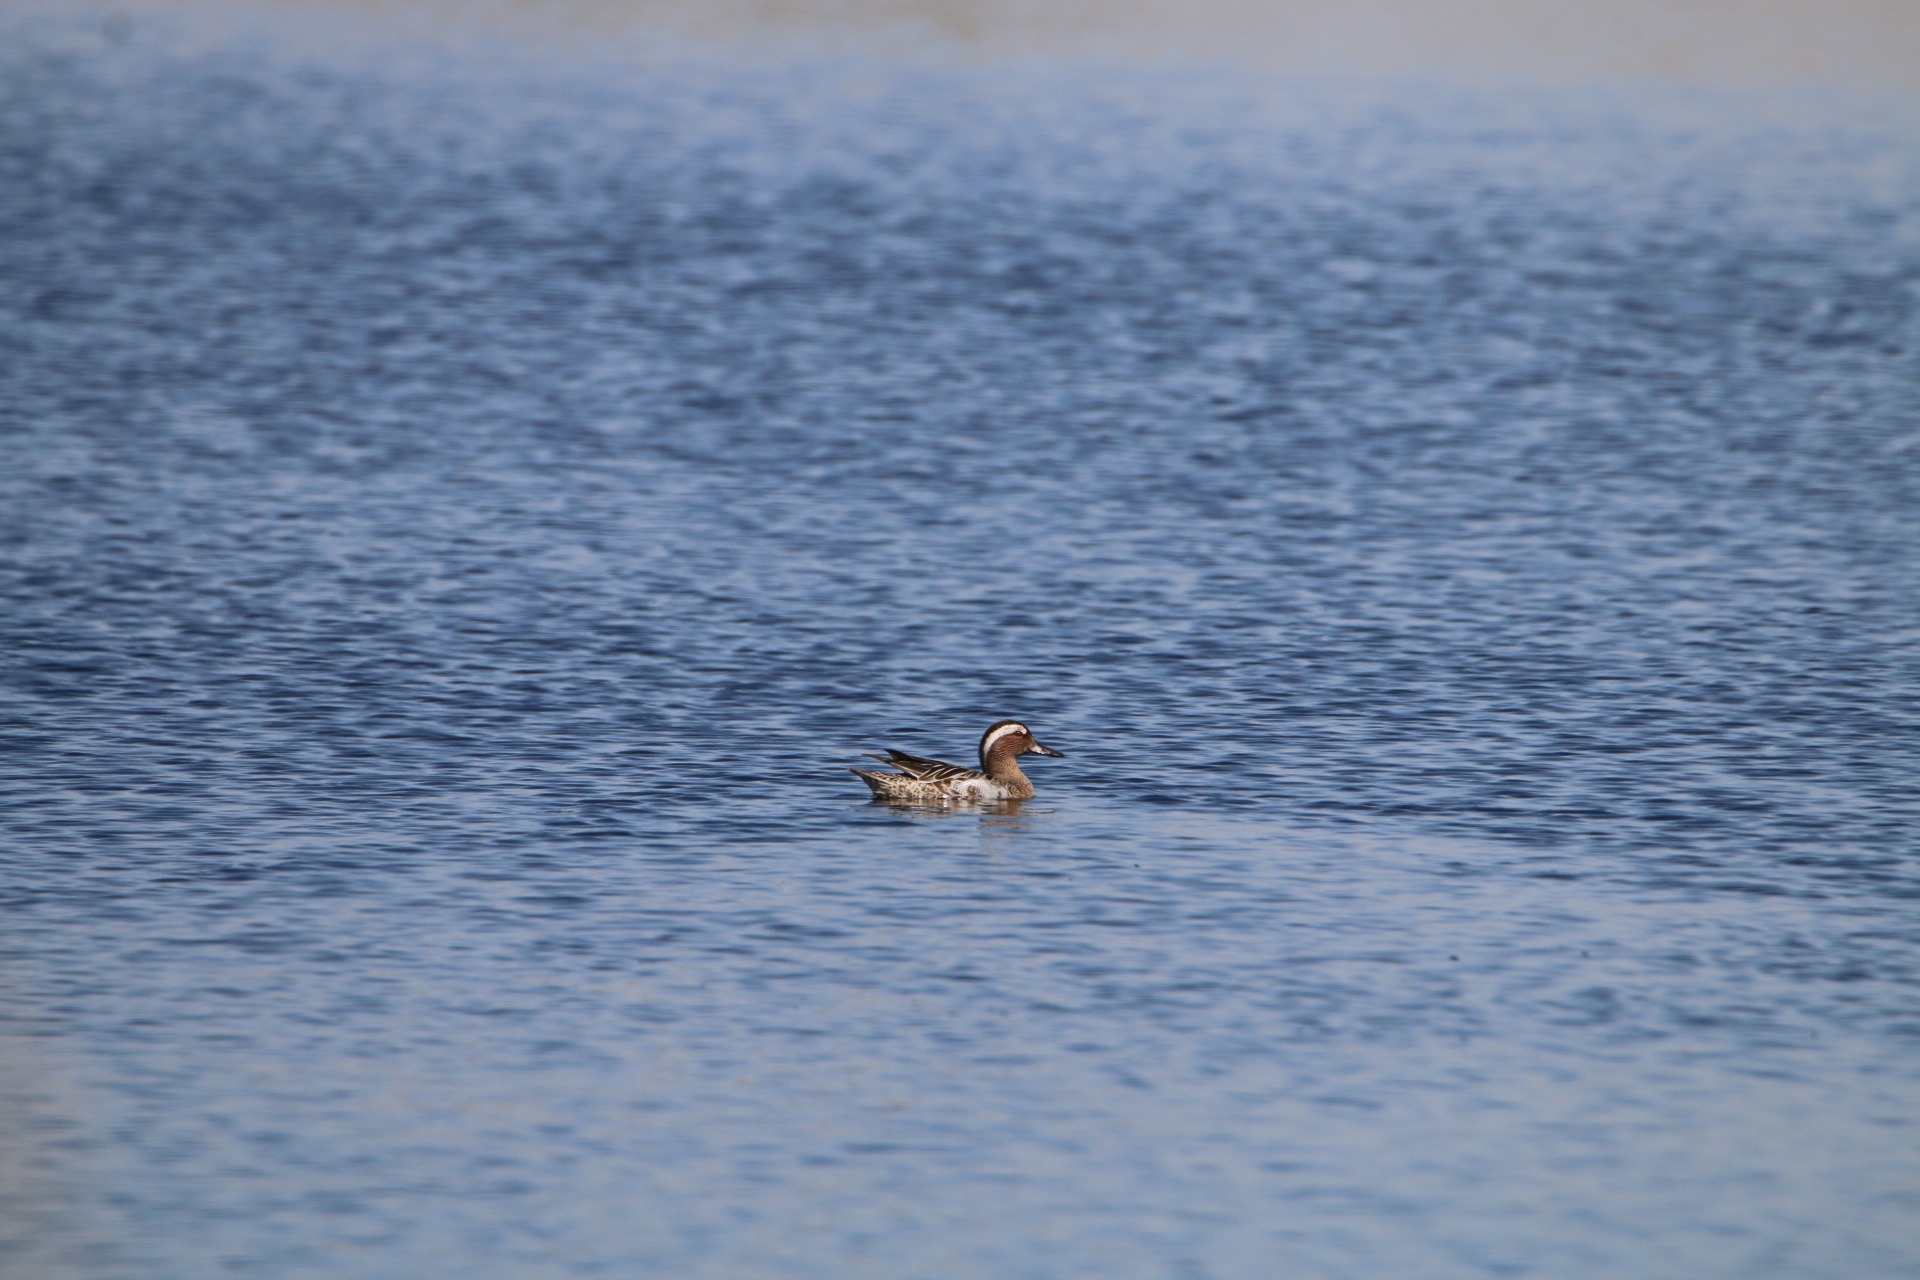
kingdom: Animalia
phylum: Chordata
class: Aves
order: Anseriformes
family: Anatidae
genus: Spatula
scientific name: Spatula querquedula
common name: Atlingand
